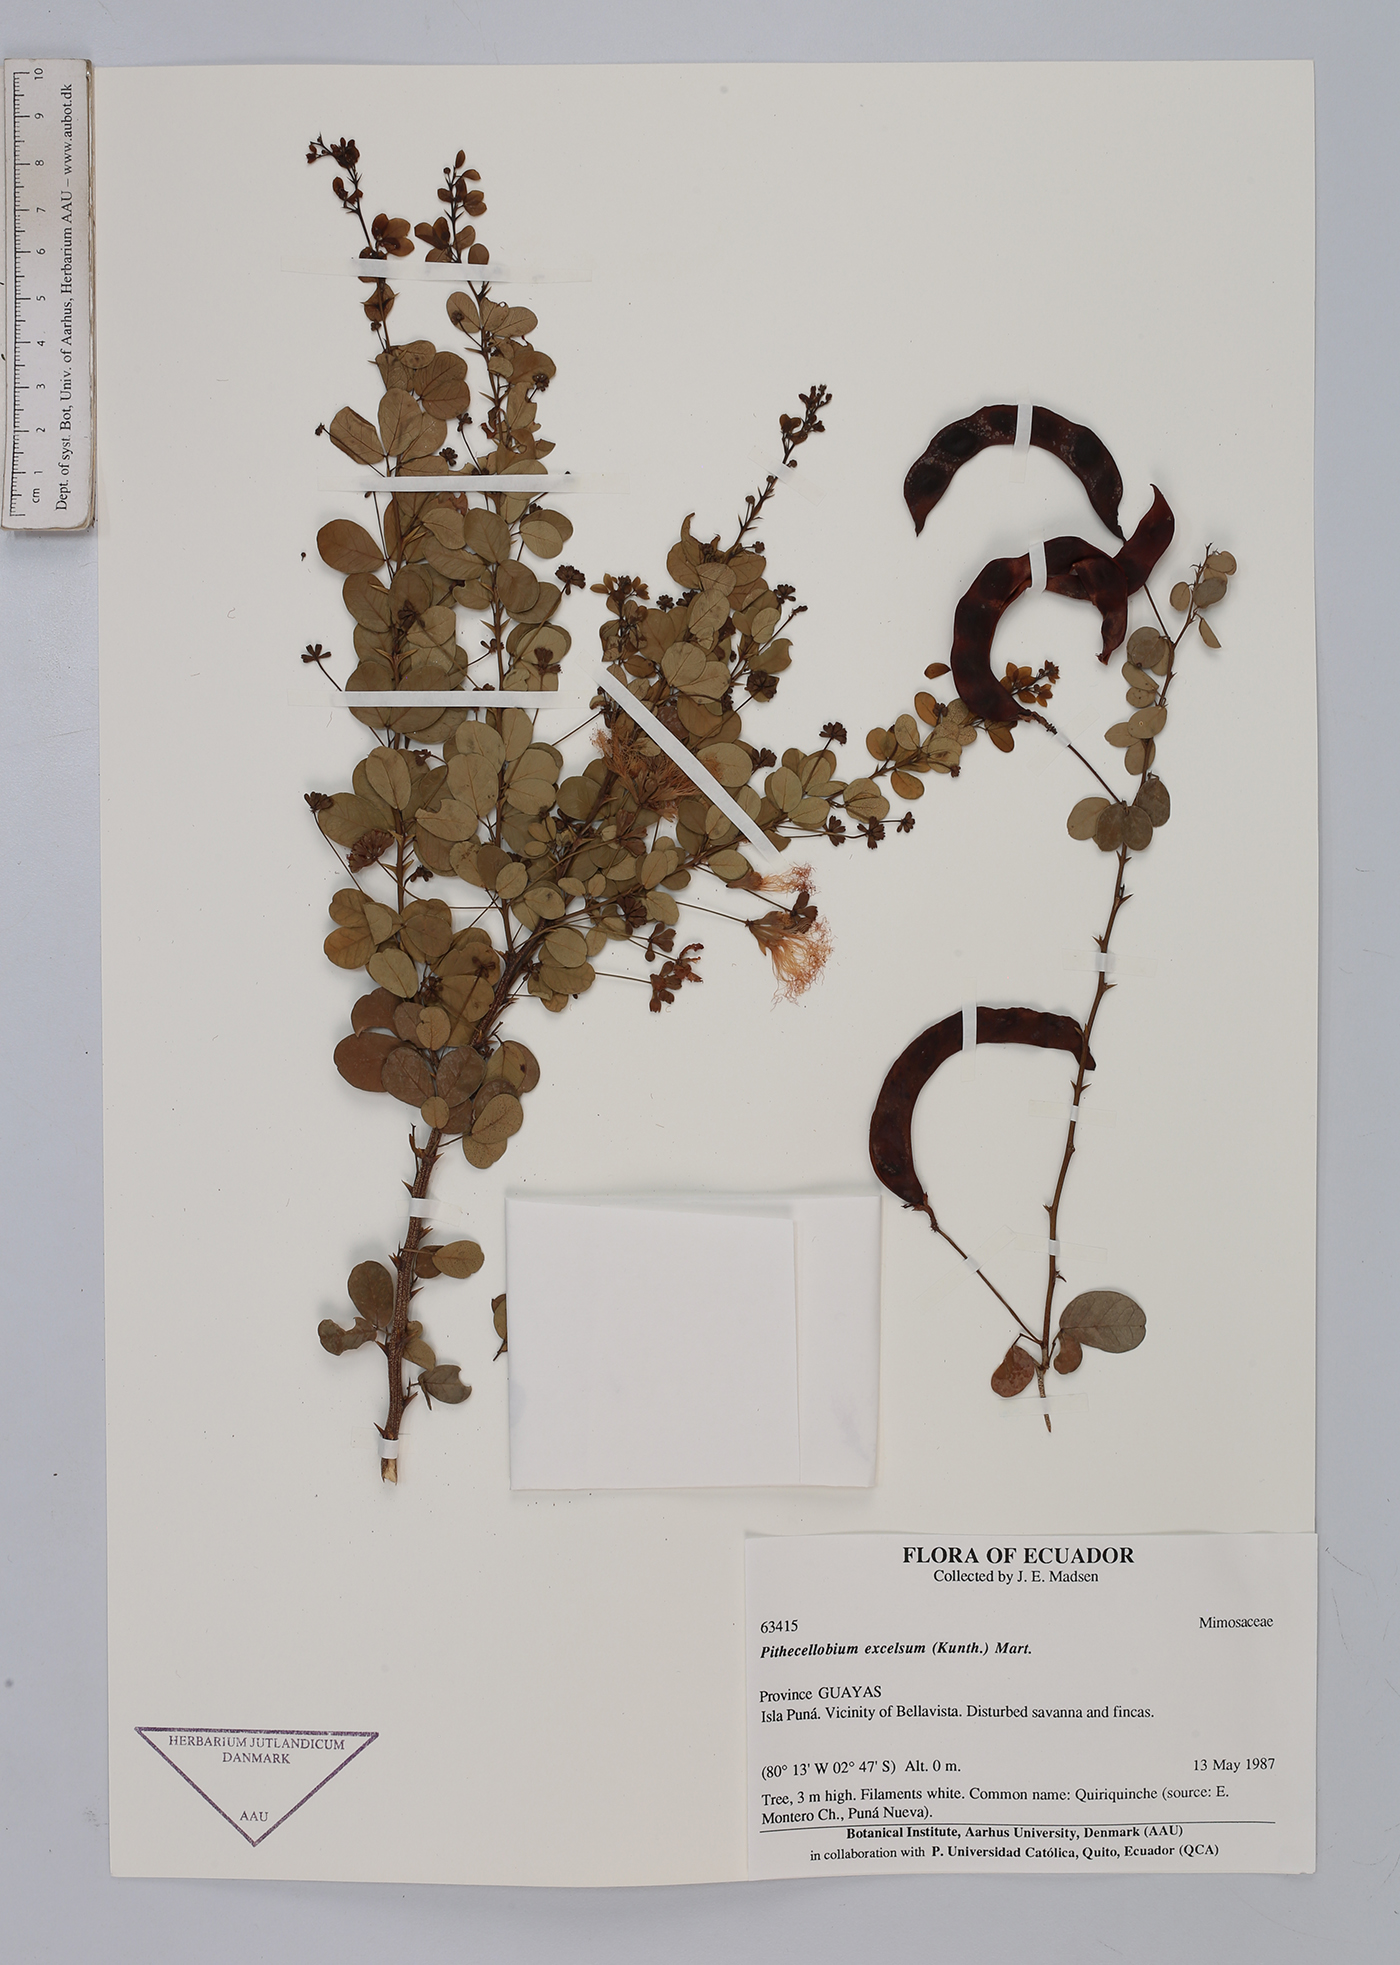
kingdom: Plantae
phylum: Tracheophyta
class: Magnoliopsida
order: Fabales
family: Fabaceae
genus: Pithecellobium
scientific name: Pithecellobium excelsum
